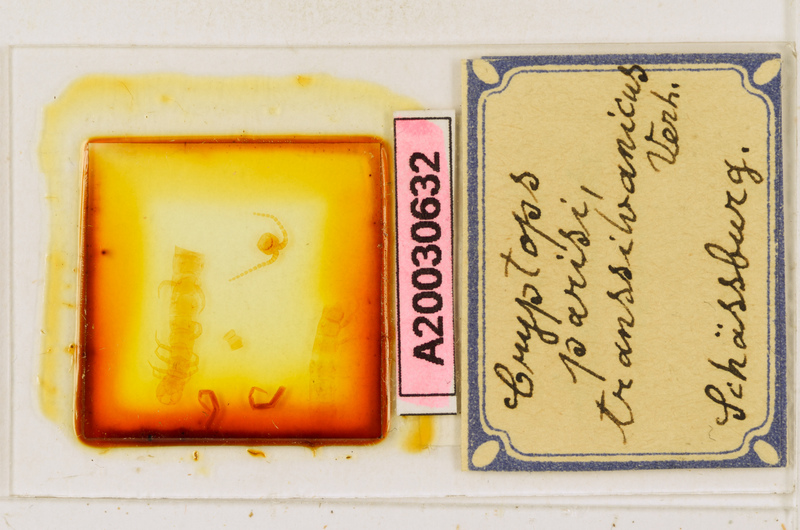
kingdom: Animalia
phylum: Arthropoda
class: Chilopoda
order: Scolopendromorpha
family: Cryptopidae
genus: Cryptops
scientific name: Cryptops parisi
